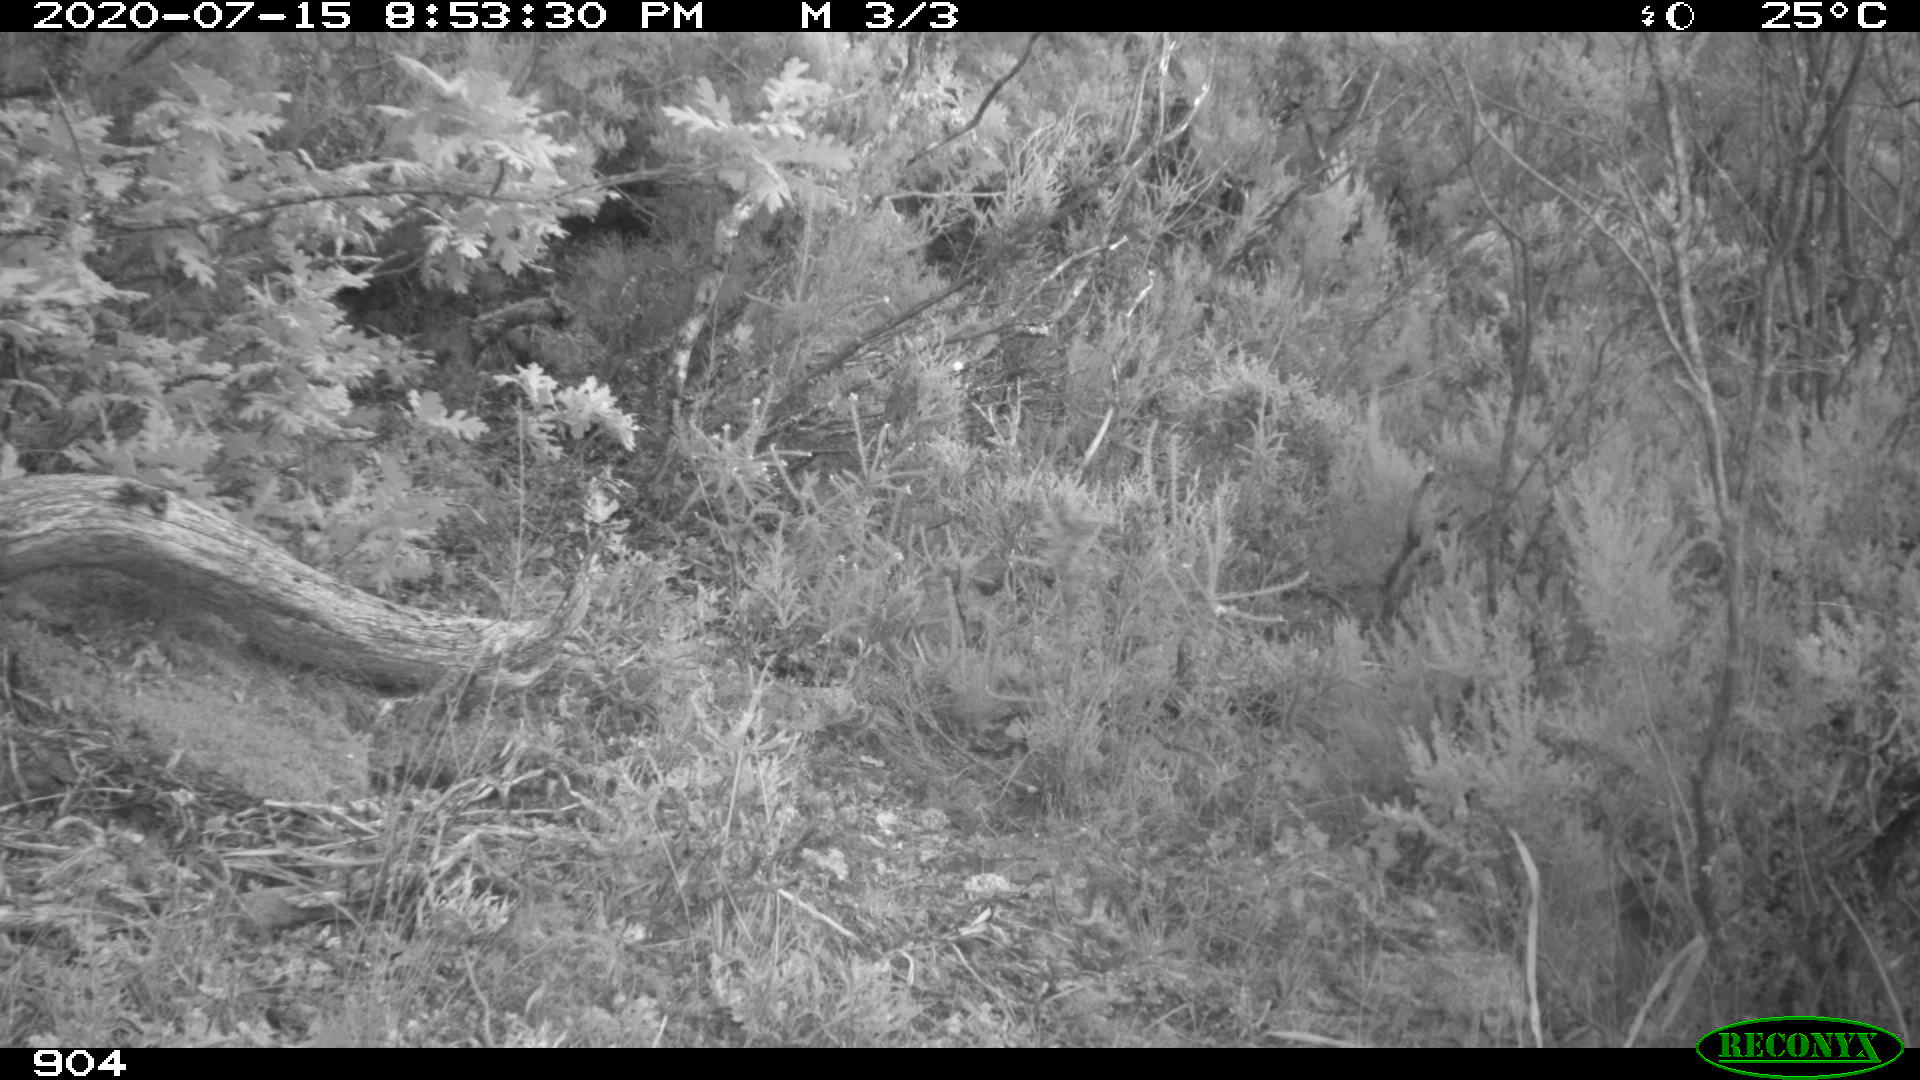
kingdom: Animalia
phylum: Chordata
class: Mammalia
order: Artiodactyla
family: Suidae
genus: Sus
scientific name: Sus scrofa
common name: Wild boar
